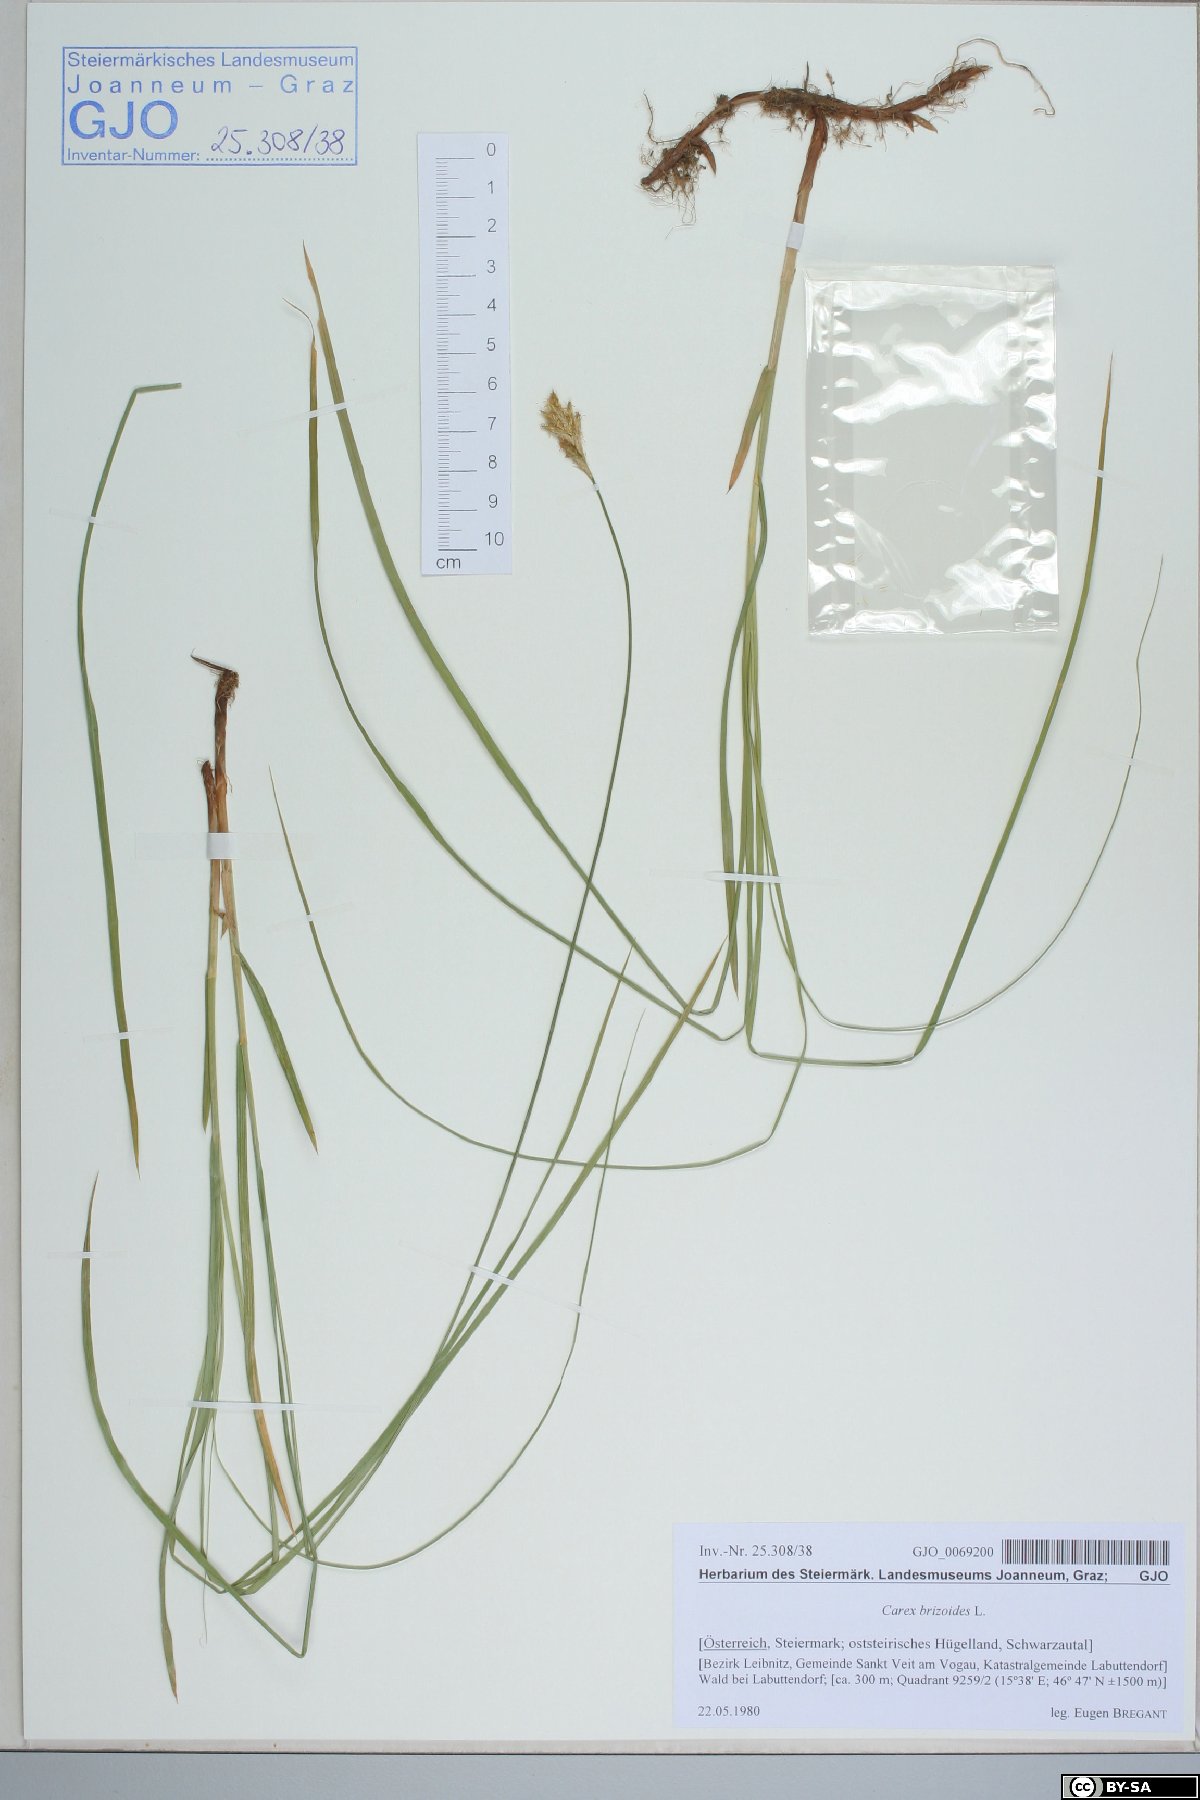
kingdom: Plantae
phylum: Tracheophyta
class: Liliopsida
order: Poales
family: Cyperaceae
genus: Carex
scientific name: Carex brizoides
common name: Quaking-grass sedge
